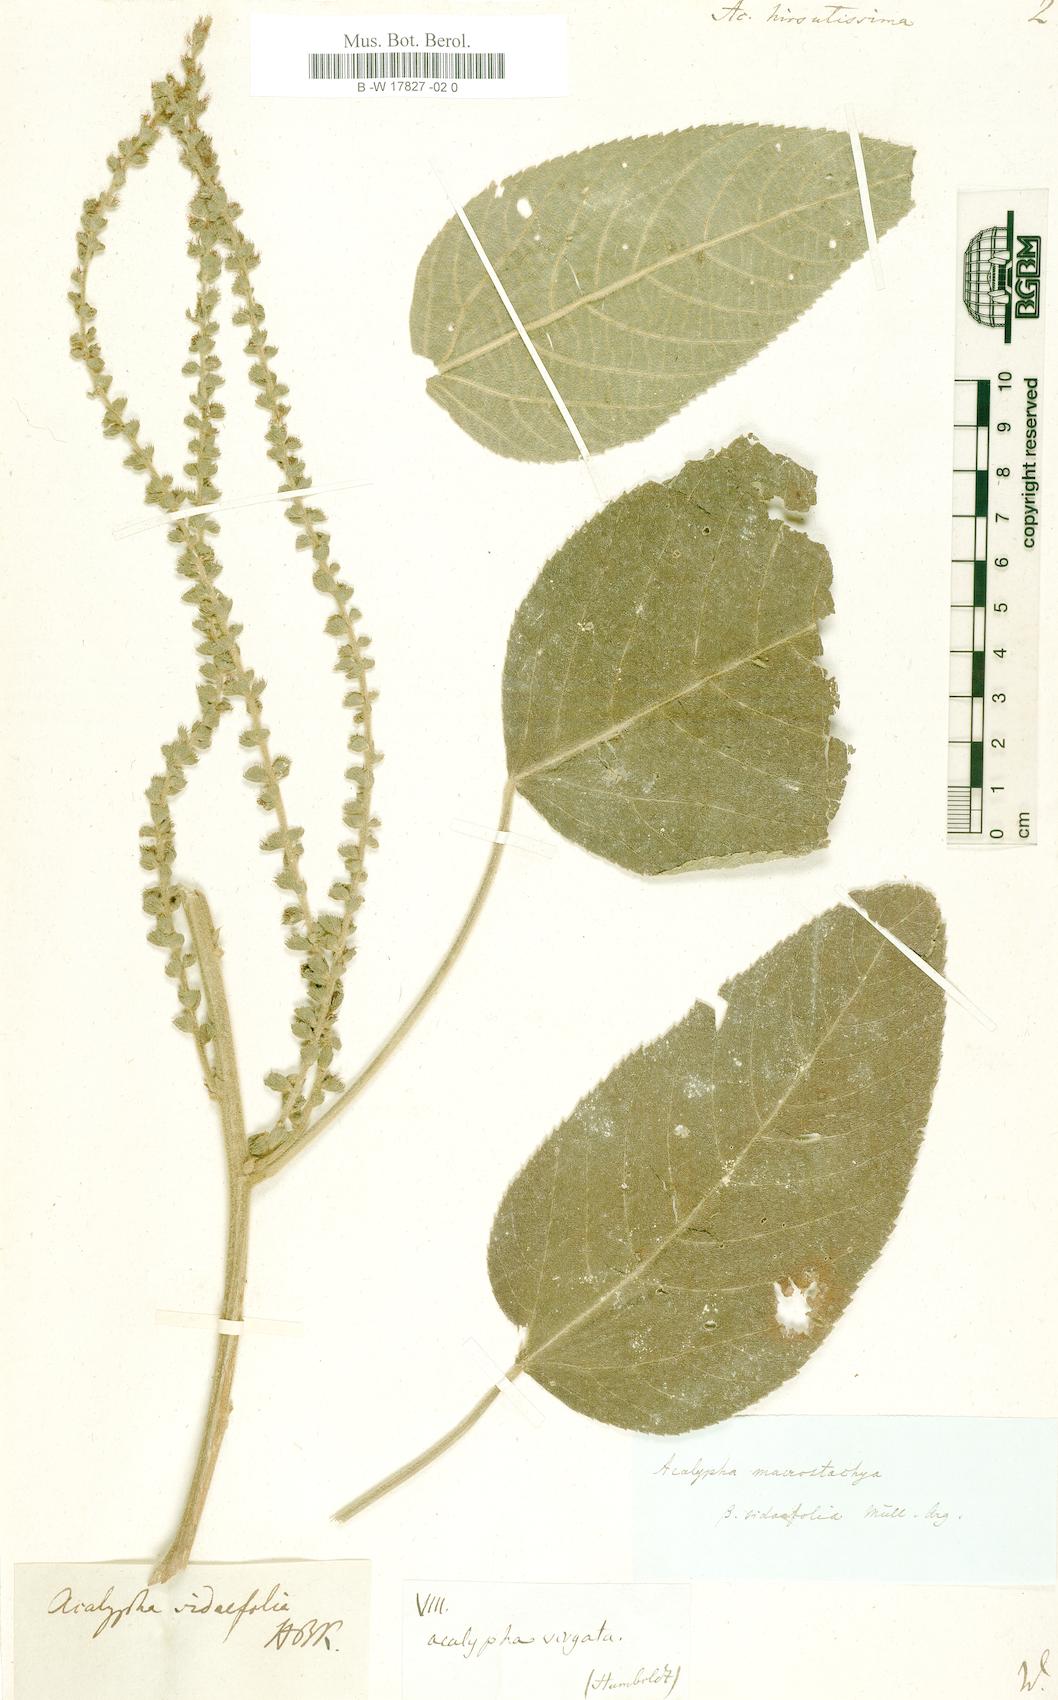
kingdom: Plantae
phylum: Tracheophyta
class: Magnoliopsida
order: Malpighiales
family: Euphorbiaceae
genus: Acalypha
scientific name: Acalypha macrostachya
